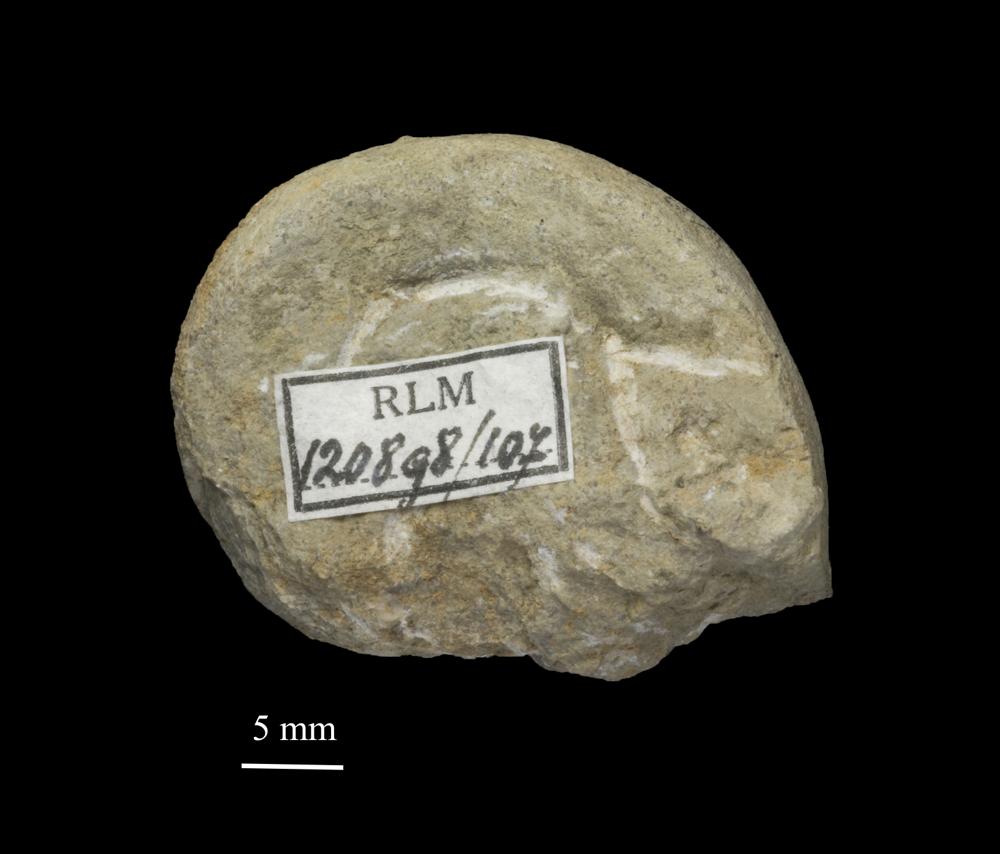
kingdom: Animalia
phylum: Mollusca
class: Gastropoda
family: Lesueurillidae
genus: Lesueurilla
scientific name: Lesueurilla
